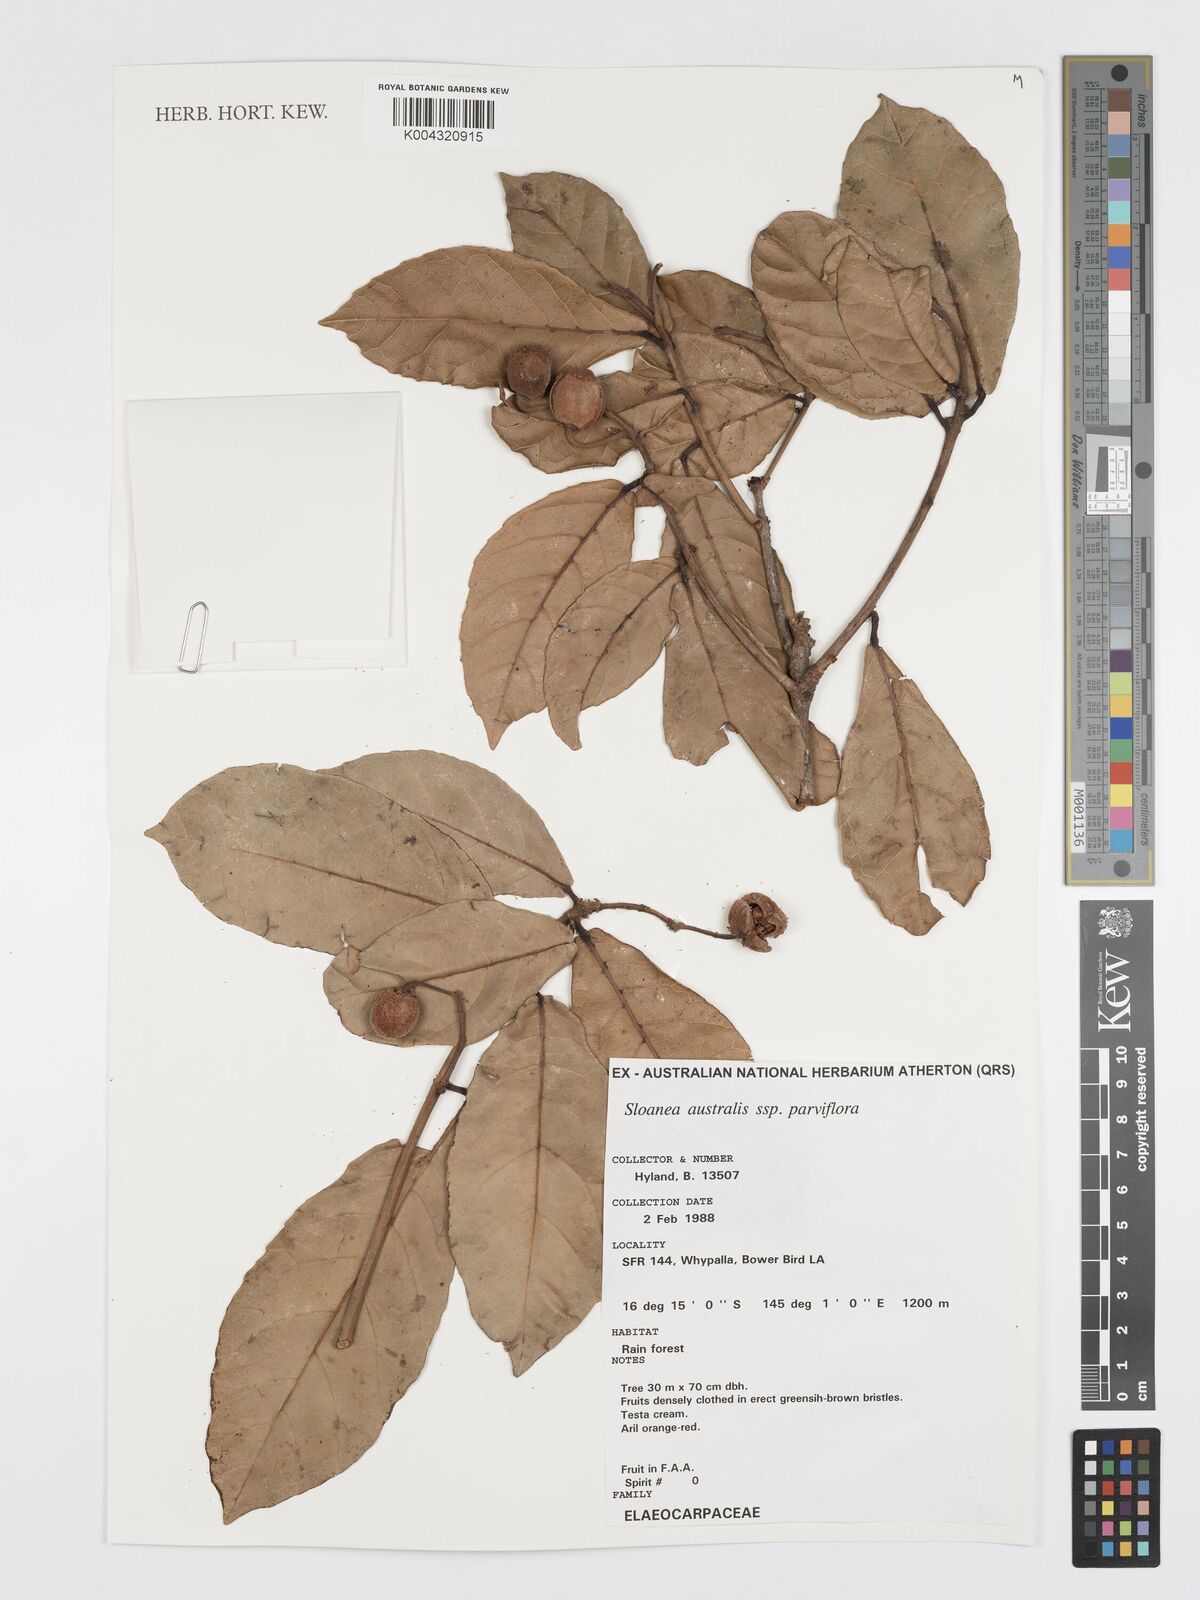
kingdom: Plantae
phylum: Tracheophyta
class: Magnoliopsida
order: Oxalidales
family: Elaeocarpaceae
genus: Sloanea
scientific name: Sloanea australis
